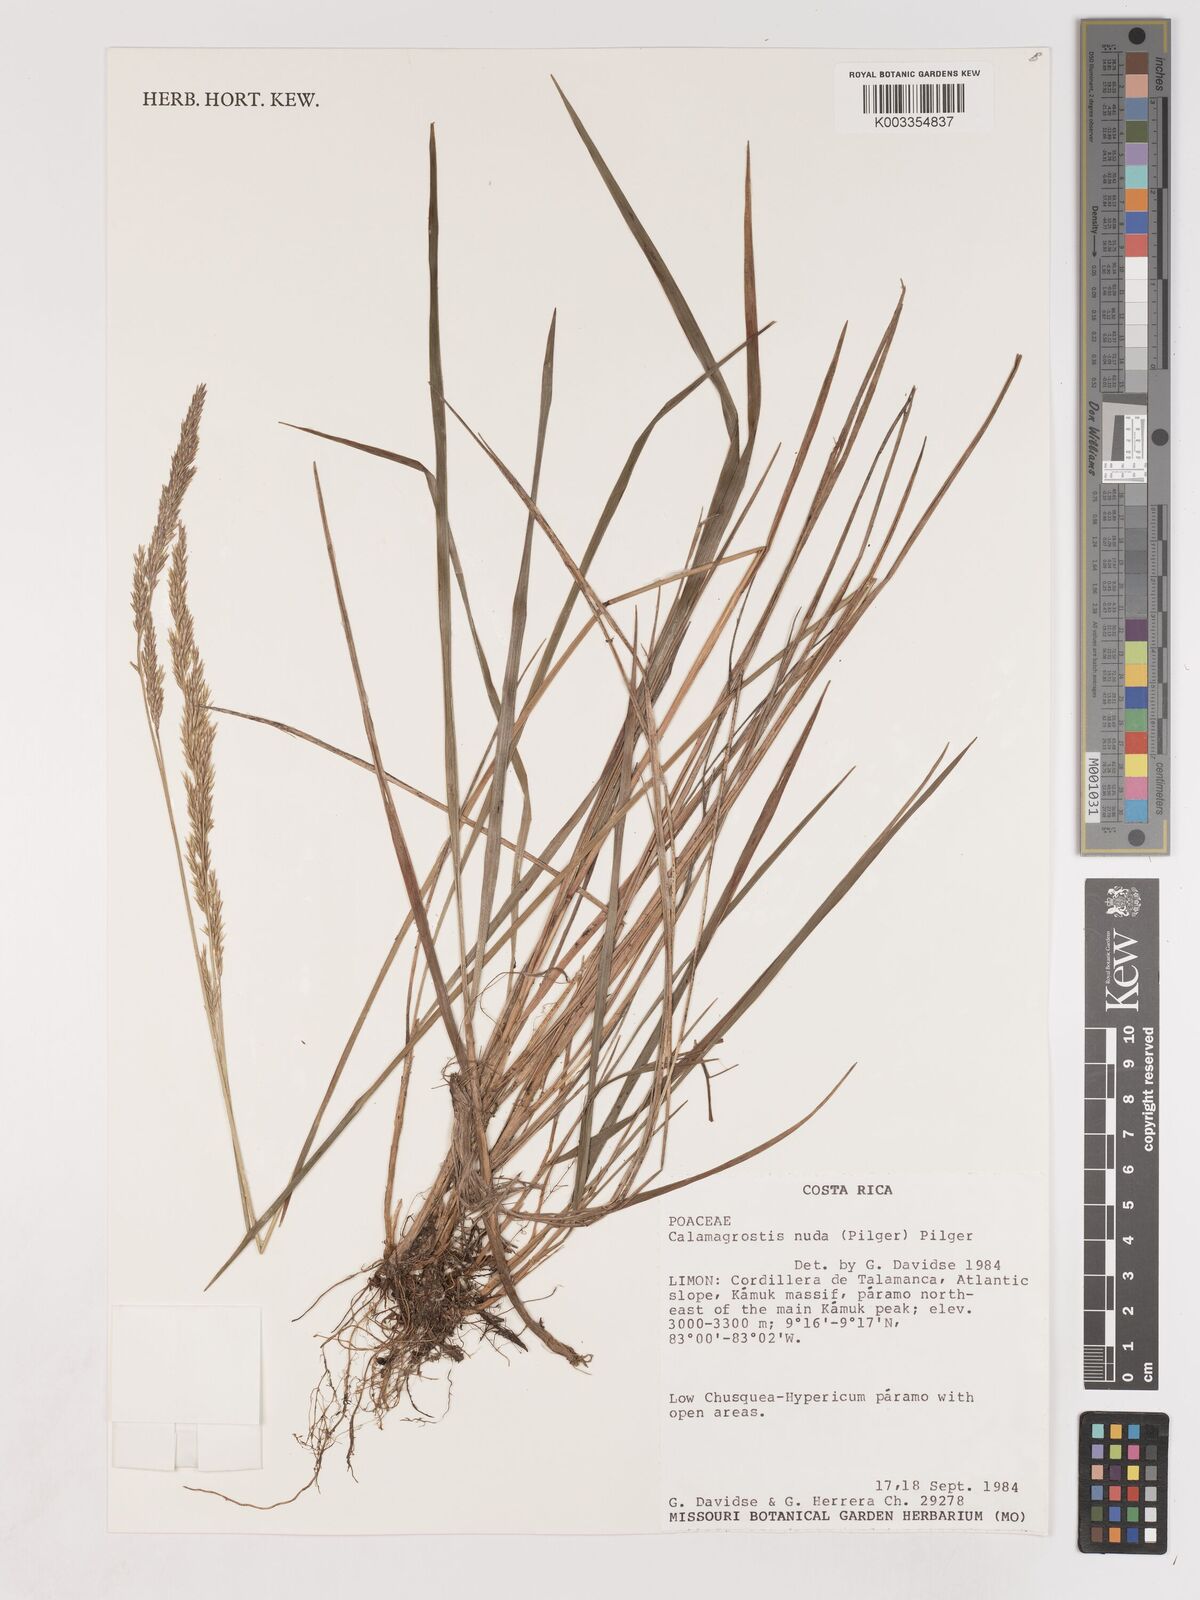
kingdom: Plantae
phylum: Tracheophyta
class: Liliopsida
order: Poales
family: Poaceae
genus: Calamagrostis
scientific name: Calamagrostis bogotensis
